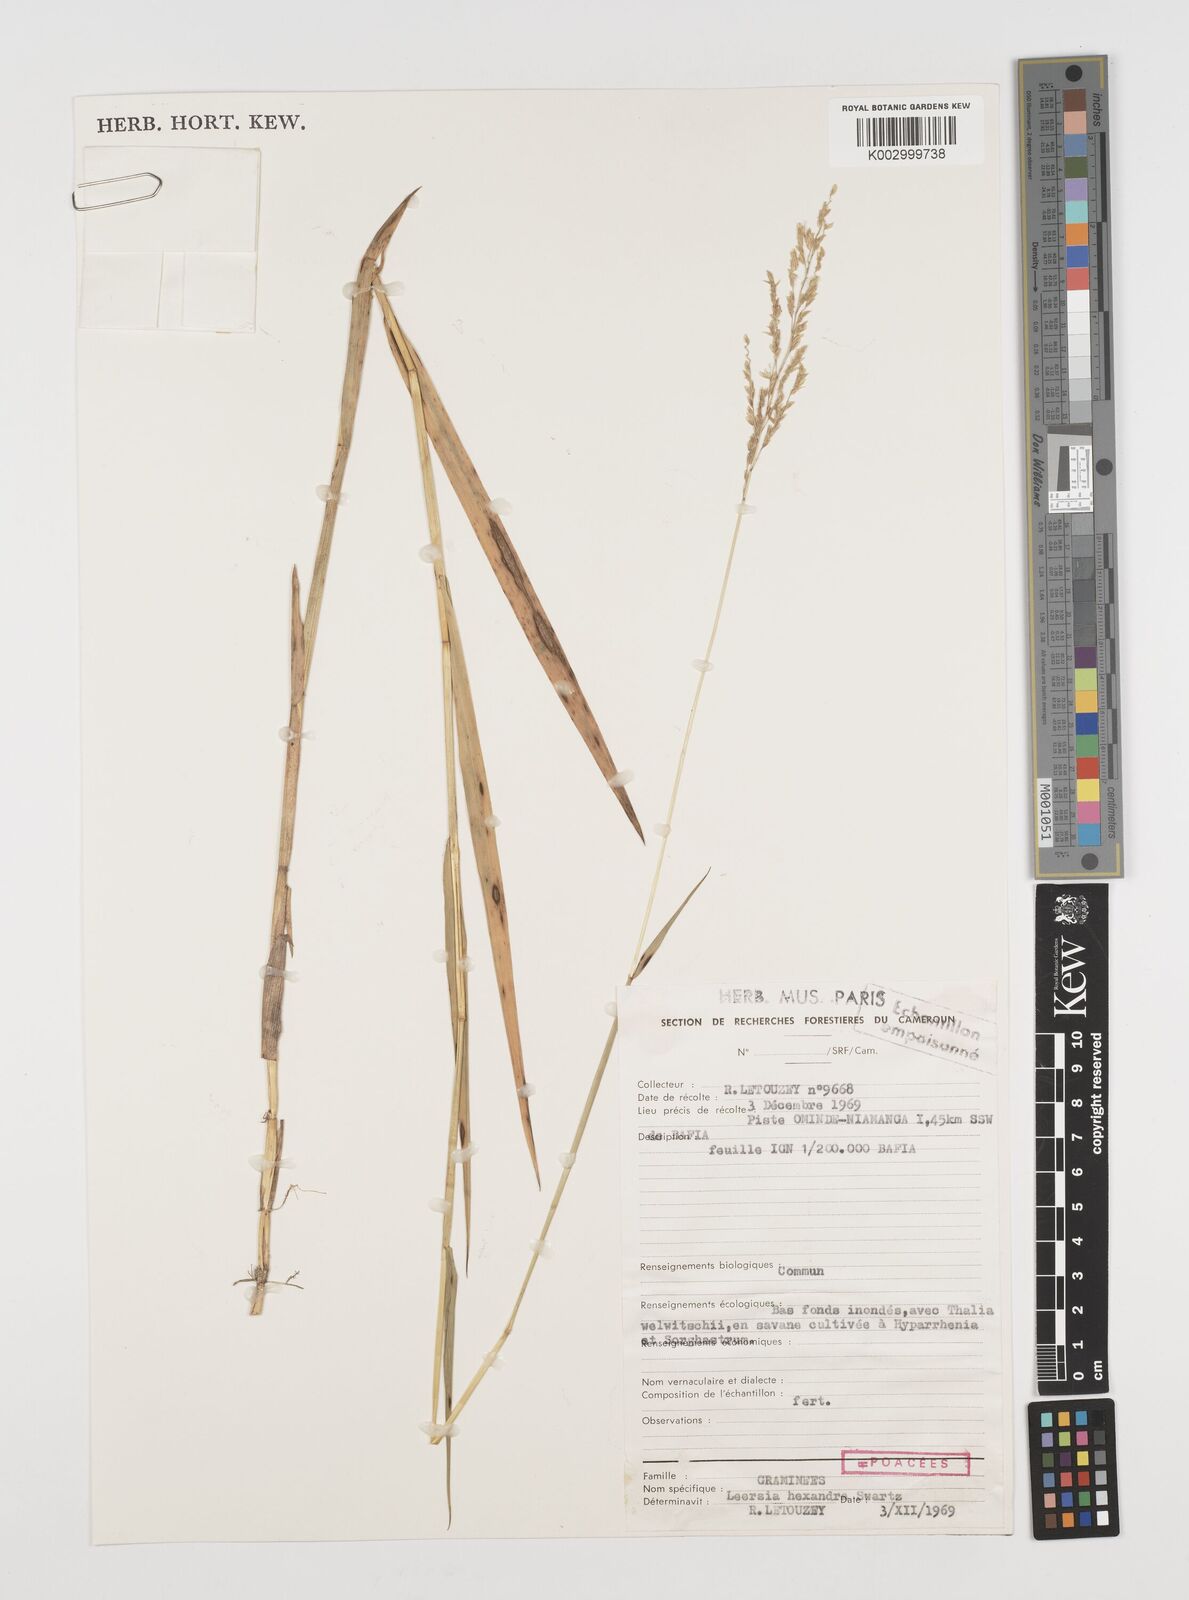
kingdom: Plantae
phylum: Tracheophyta
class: Liliopsida
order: Poales
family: Poaceae
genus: Leersia
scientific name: Leersia hexandra
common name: Southern cut grass
